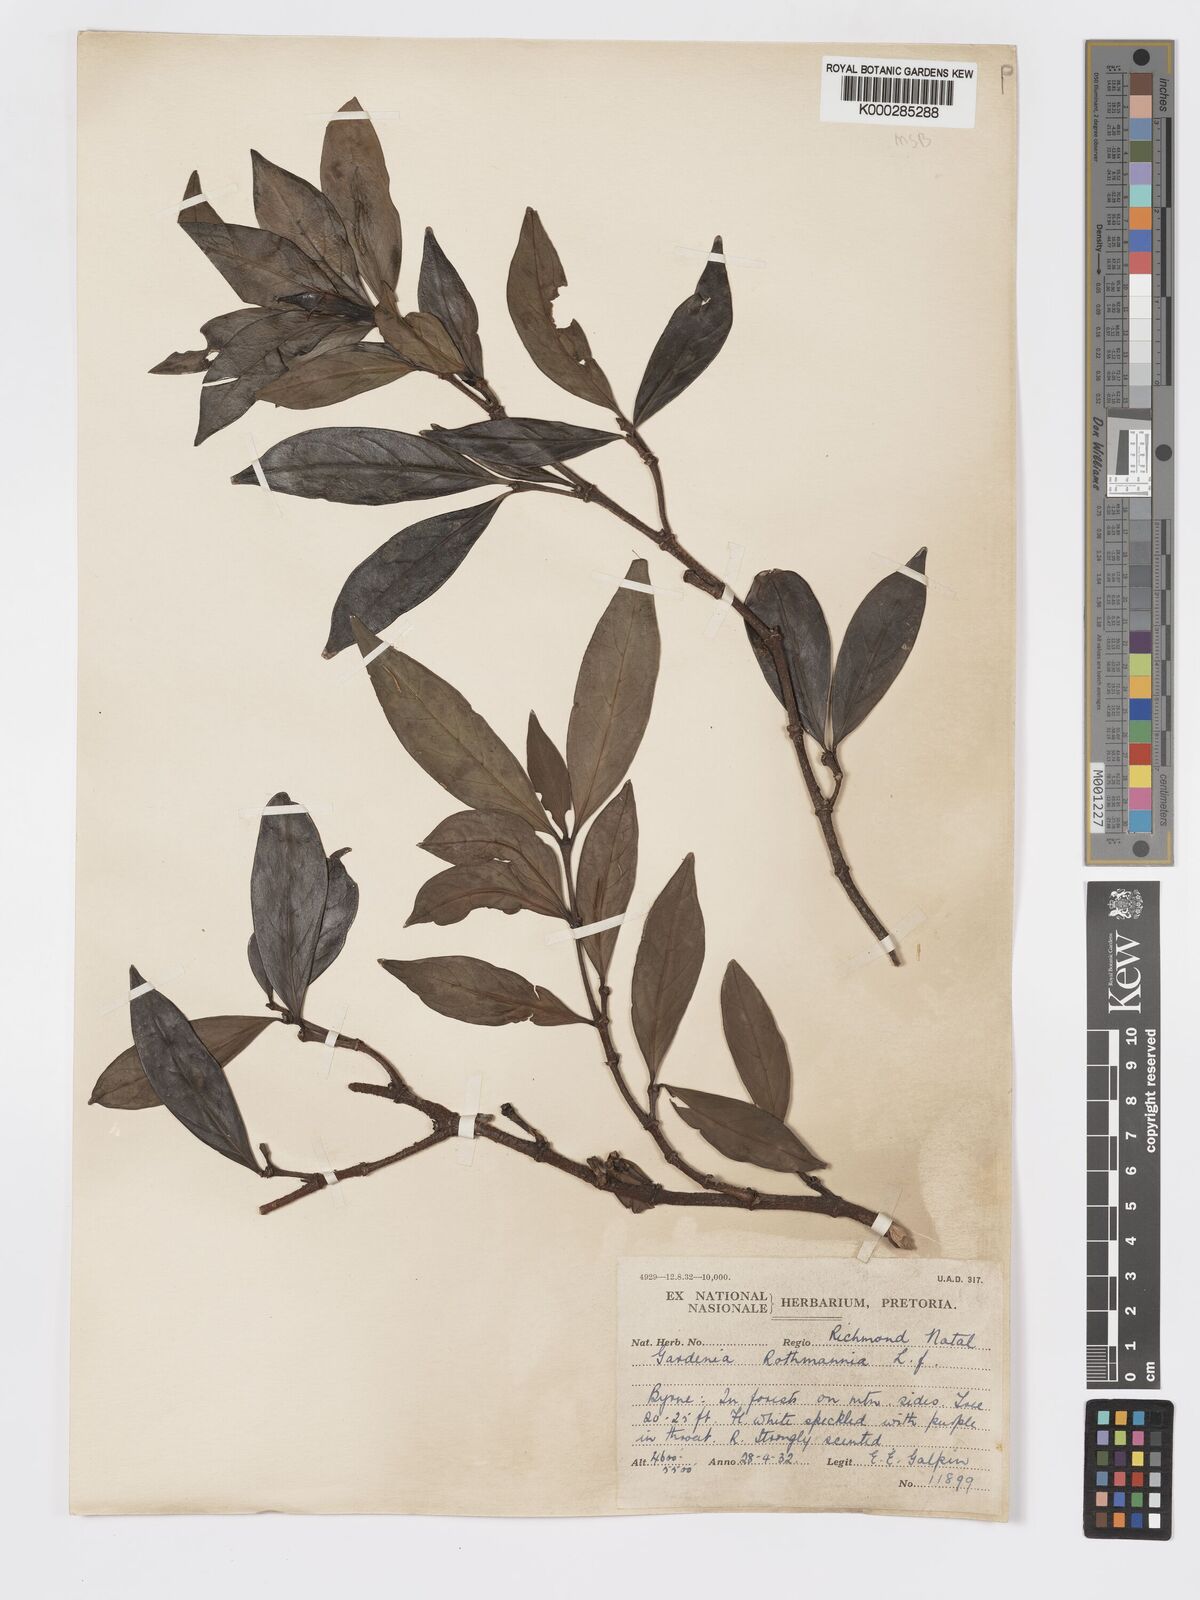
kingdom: Plantae
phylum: Tracheophyta
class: Magnoliopsida
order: Gentianales
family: Rubiaceae
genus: Rothmannia
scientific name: Rothmannia capensis
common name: Cape gardenia
